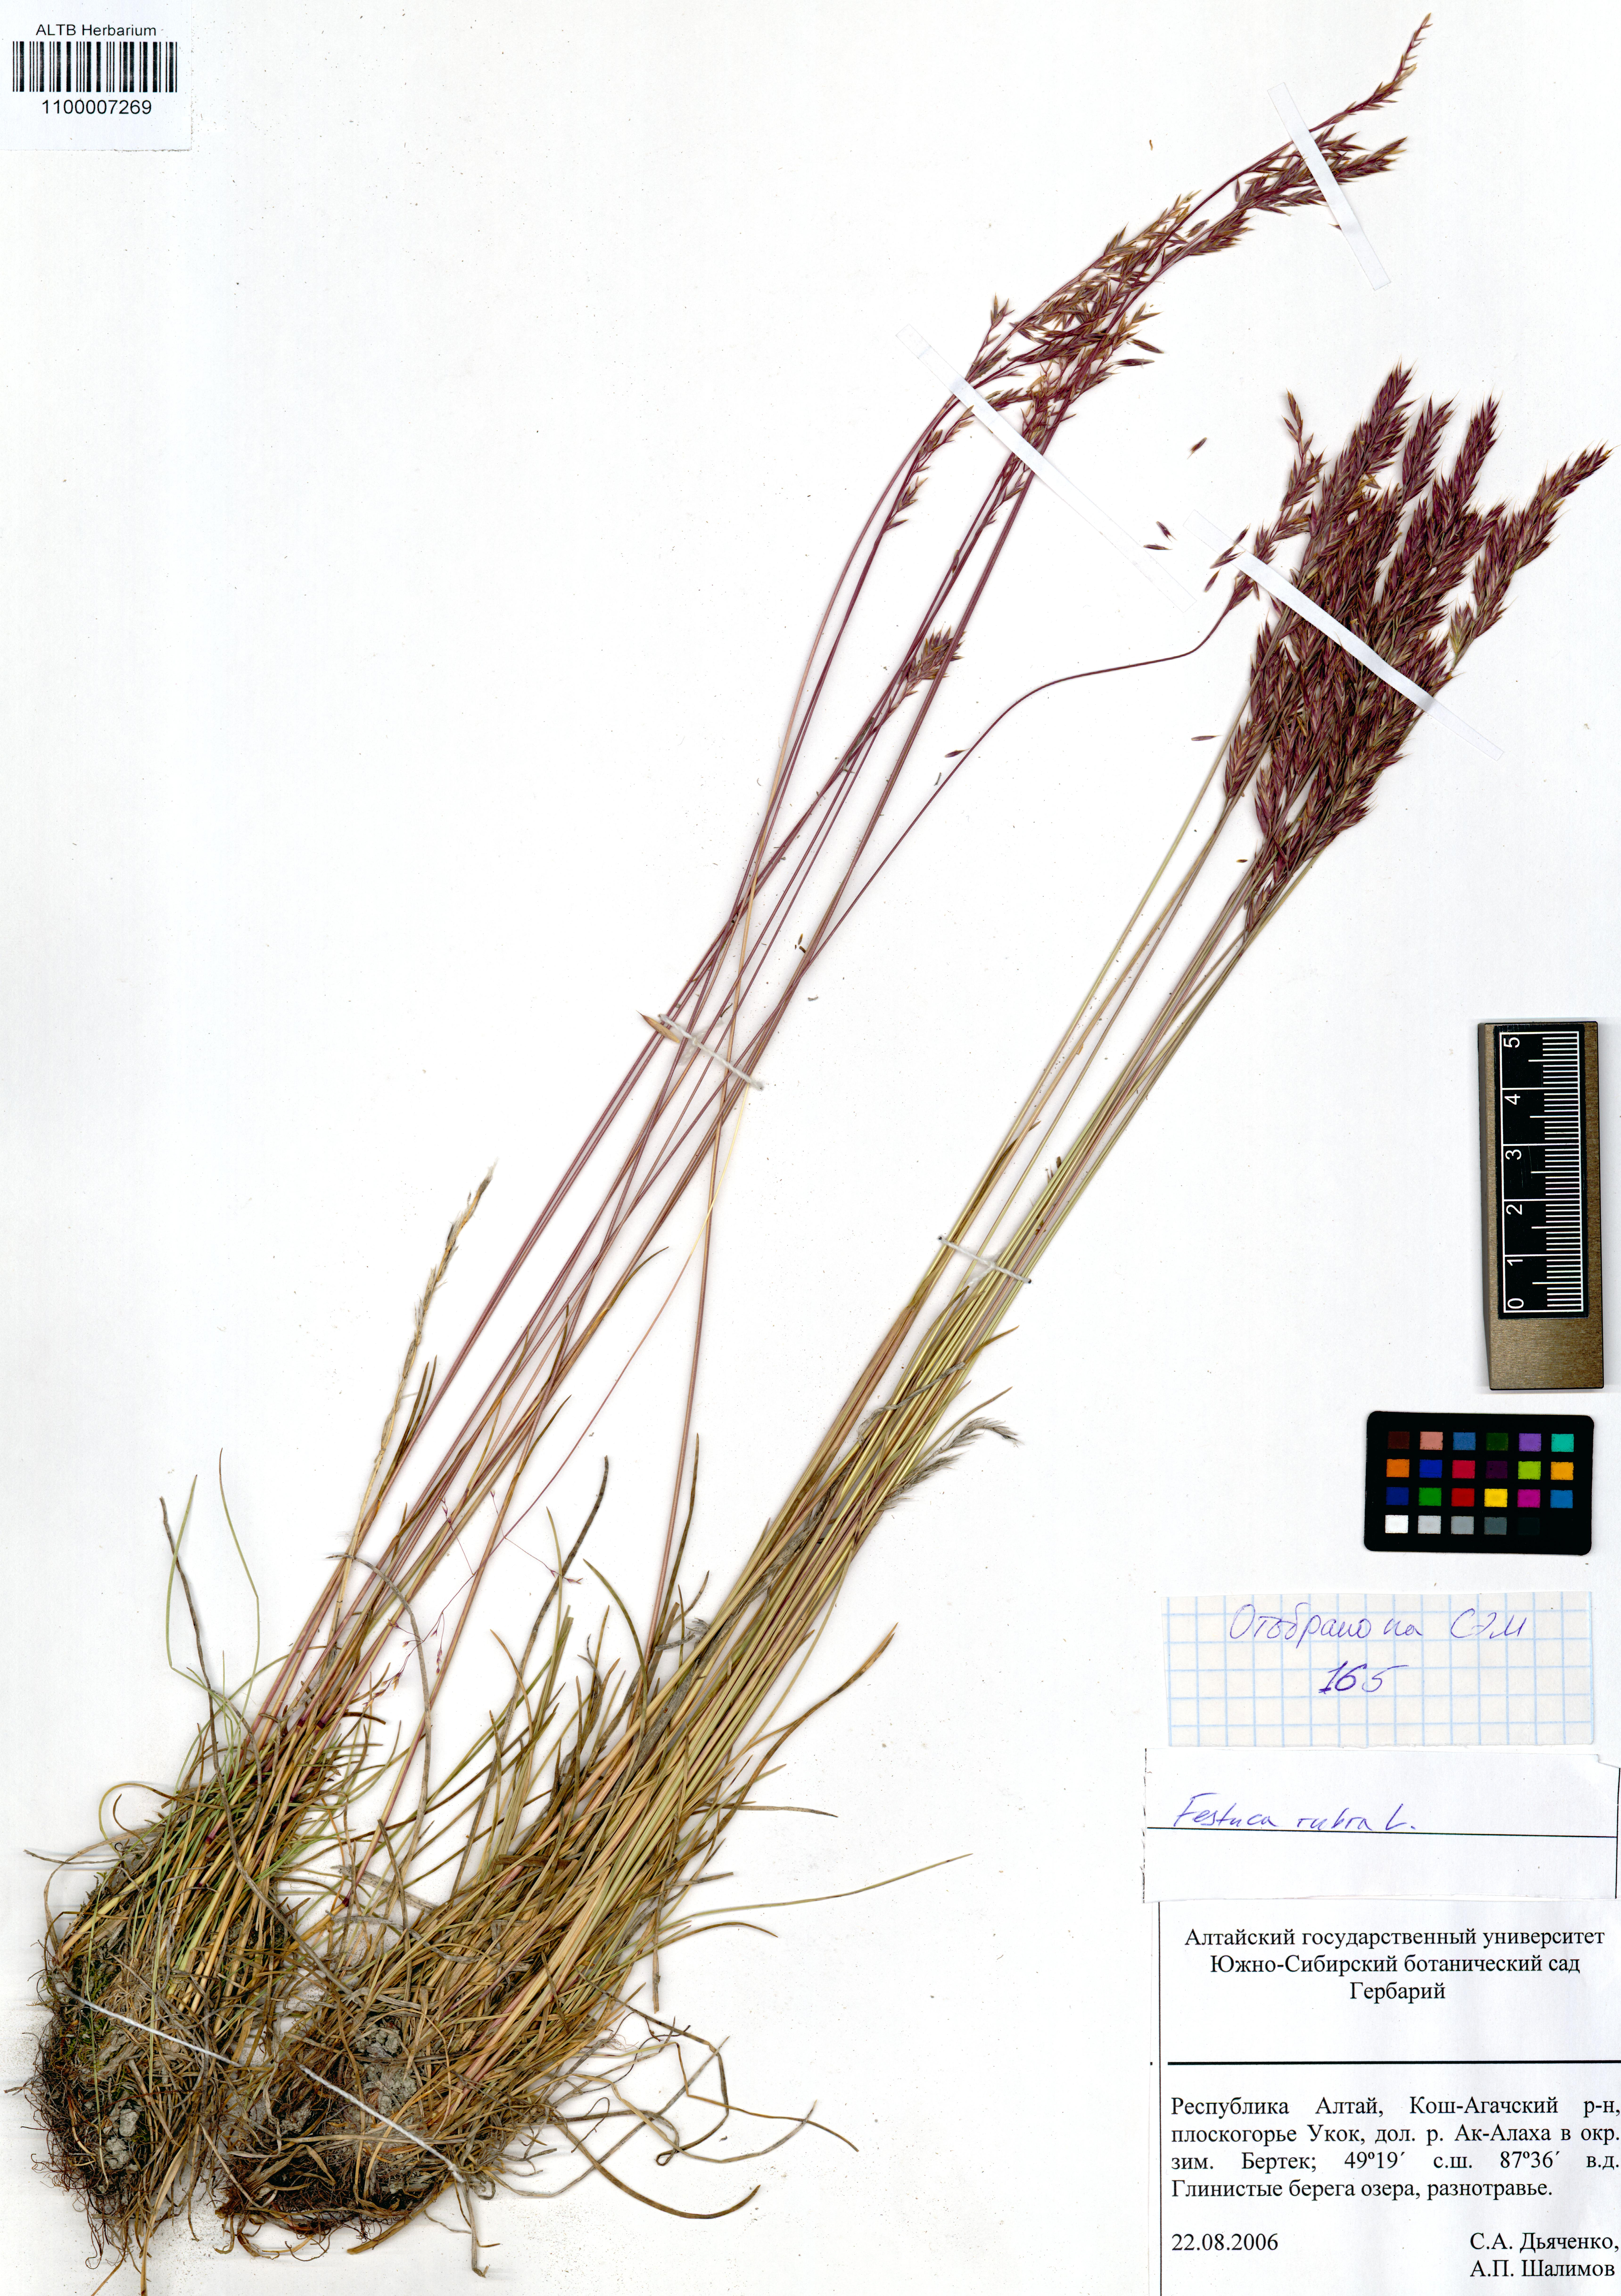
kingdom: Plantae
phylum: Tracheophyta
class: Liliopsida
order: Poales
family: Poaceae
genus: Festuca
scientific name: Festuca rubra
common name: Red fescue
